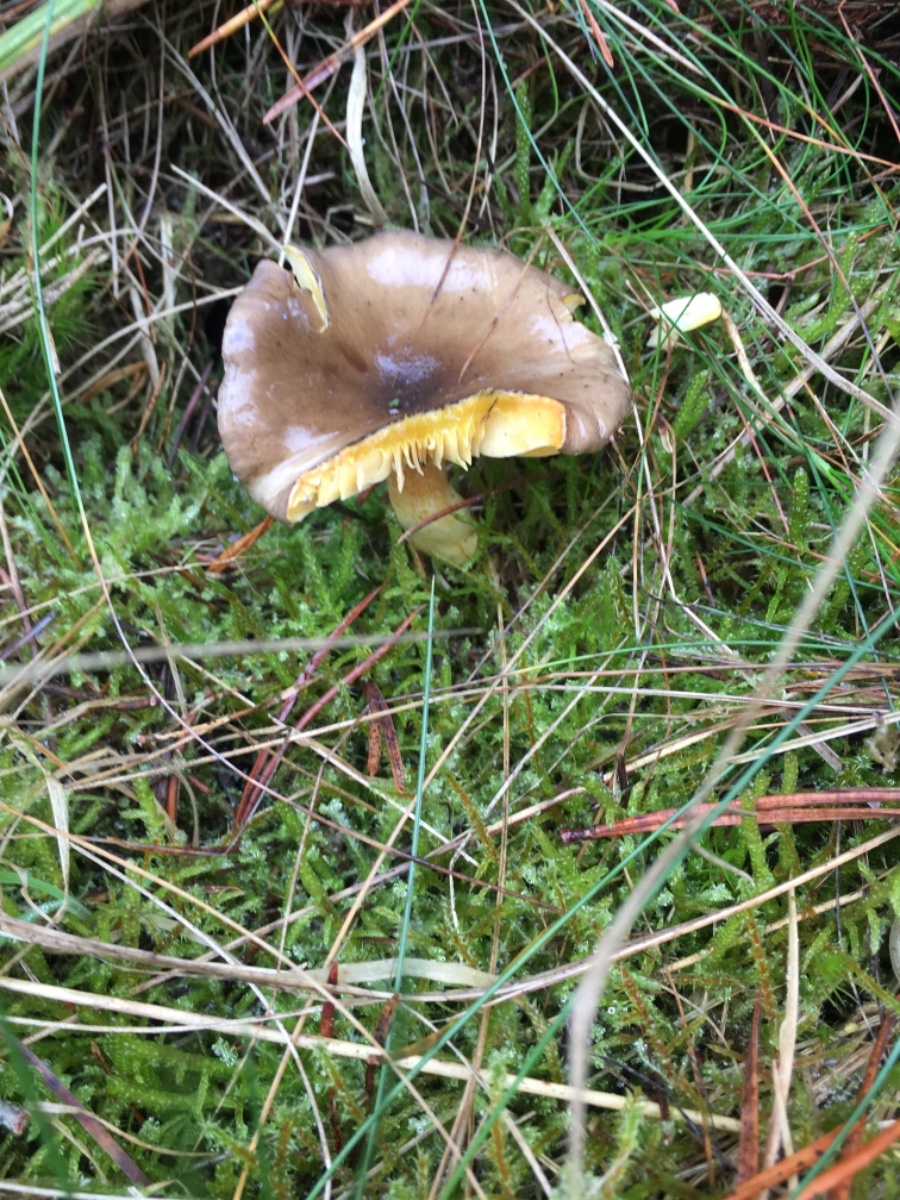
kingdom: Fungi
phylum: Basidiomycota
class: Agaricomycetes
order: Agaricales
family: Hygrophoraceae
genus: Hygrophorus
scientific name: Hygrophorus hypothejus
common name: frost-sneglehat
